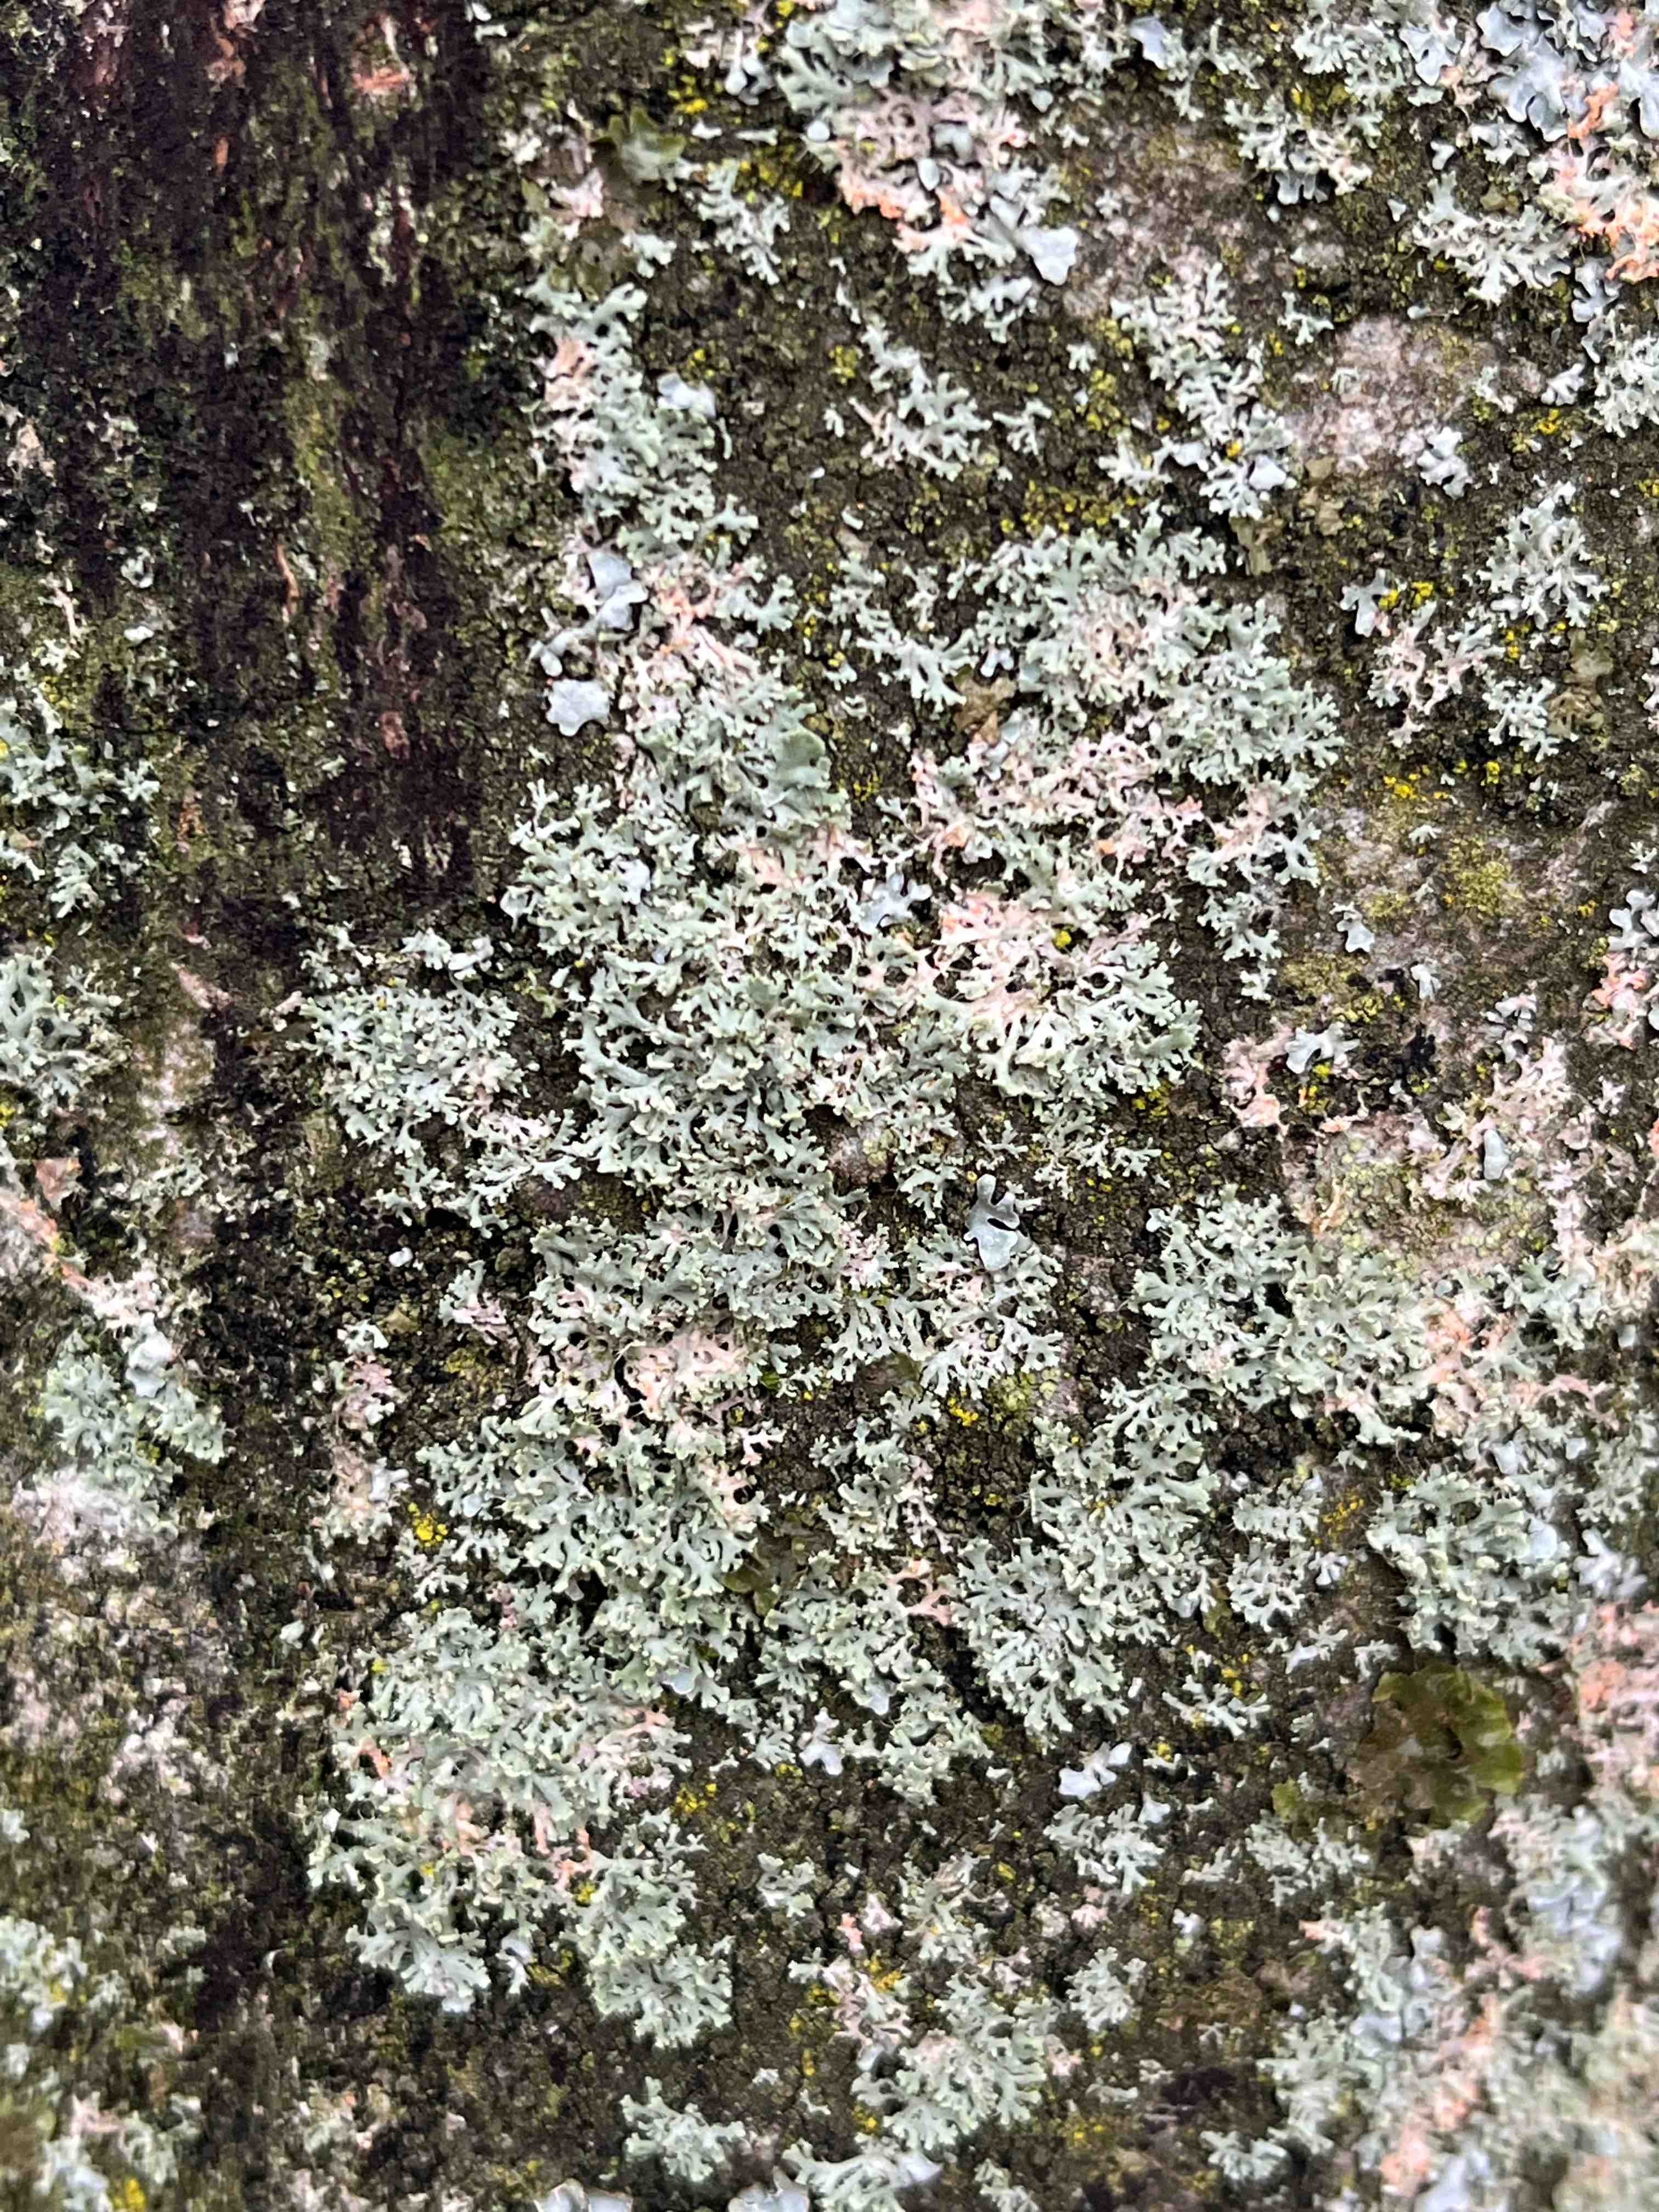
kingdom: Fungi
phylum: Ascomycota
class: Lecanoromycetes
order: Caliciales
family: Physciaceae
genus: Physcia
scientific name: Physcia tenella
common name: spæd rosetlav
